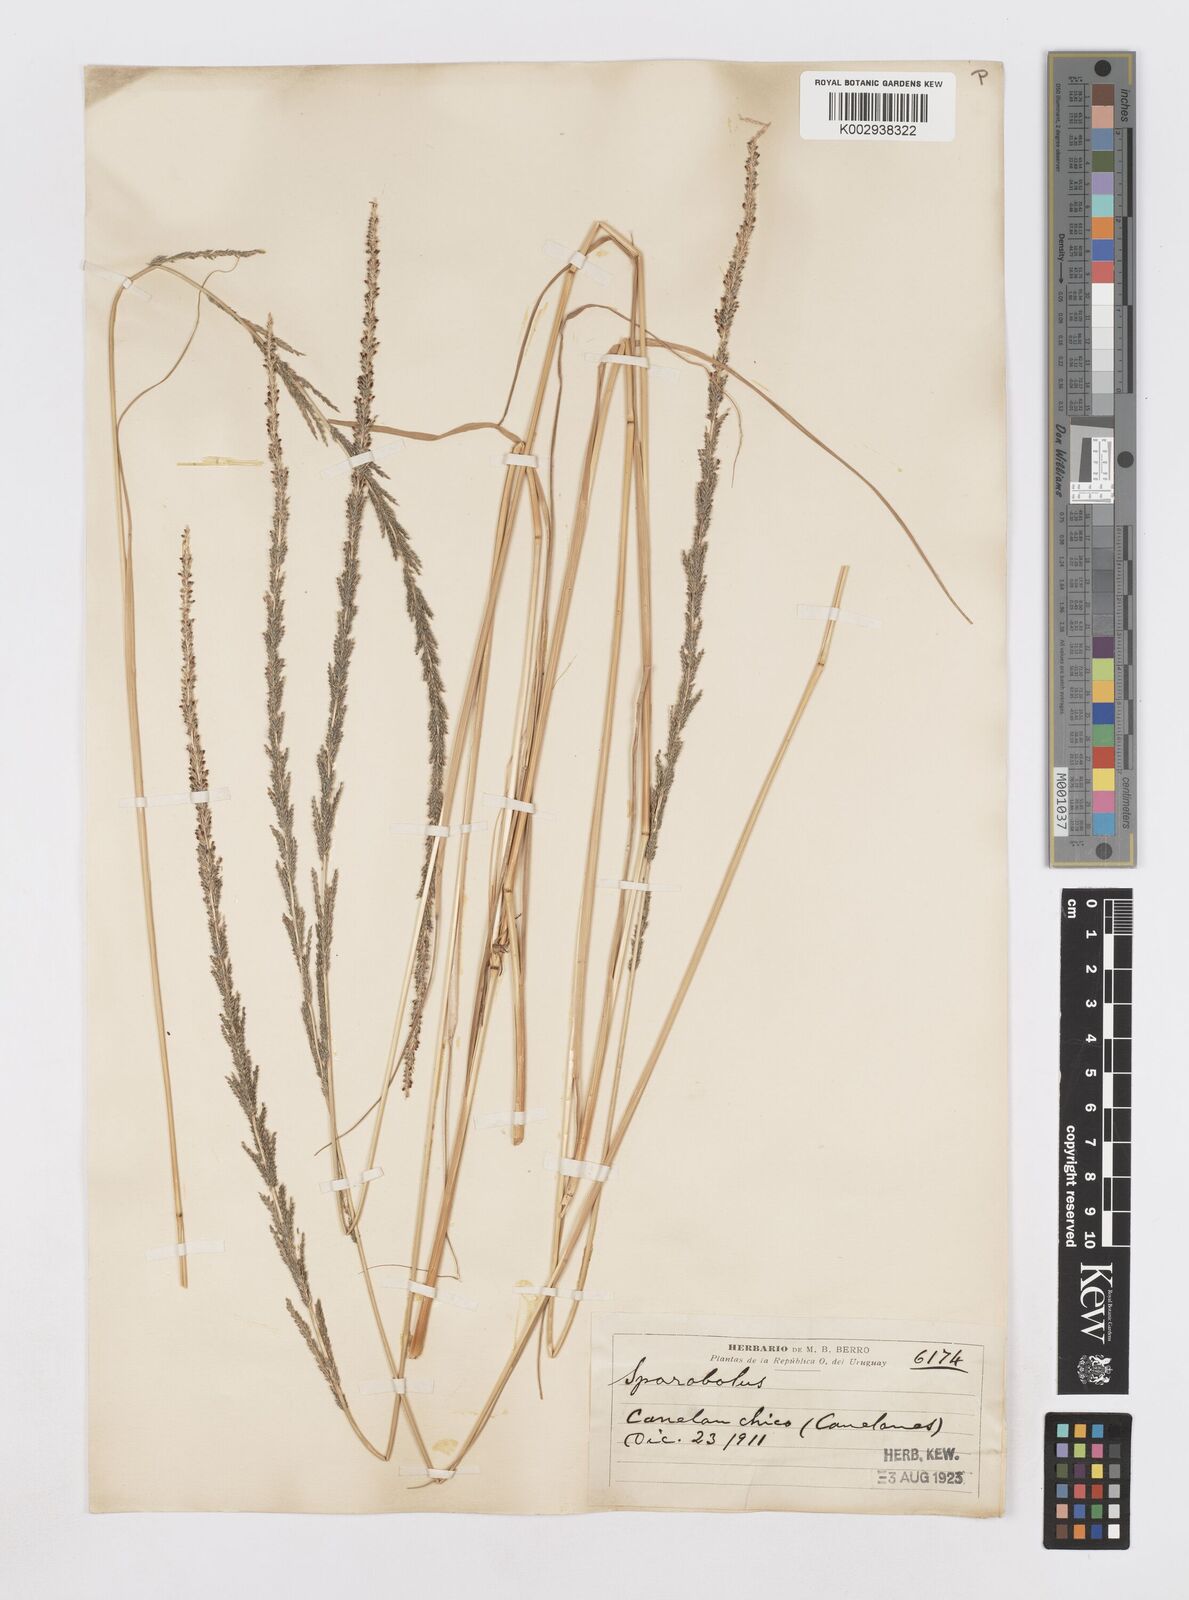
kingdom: Plantae
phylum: Tracheophyta
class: Liliopsida
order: Poales
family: Poaceae
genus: Sporobolus
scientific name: Sporobolus indicus
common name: Smut grass
